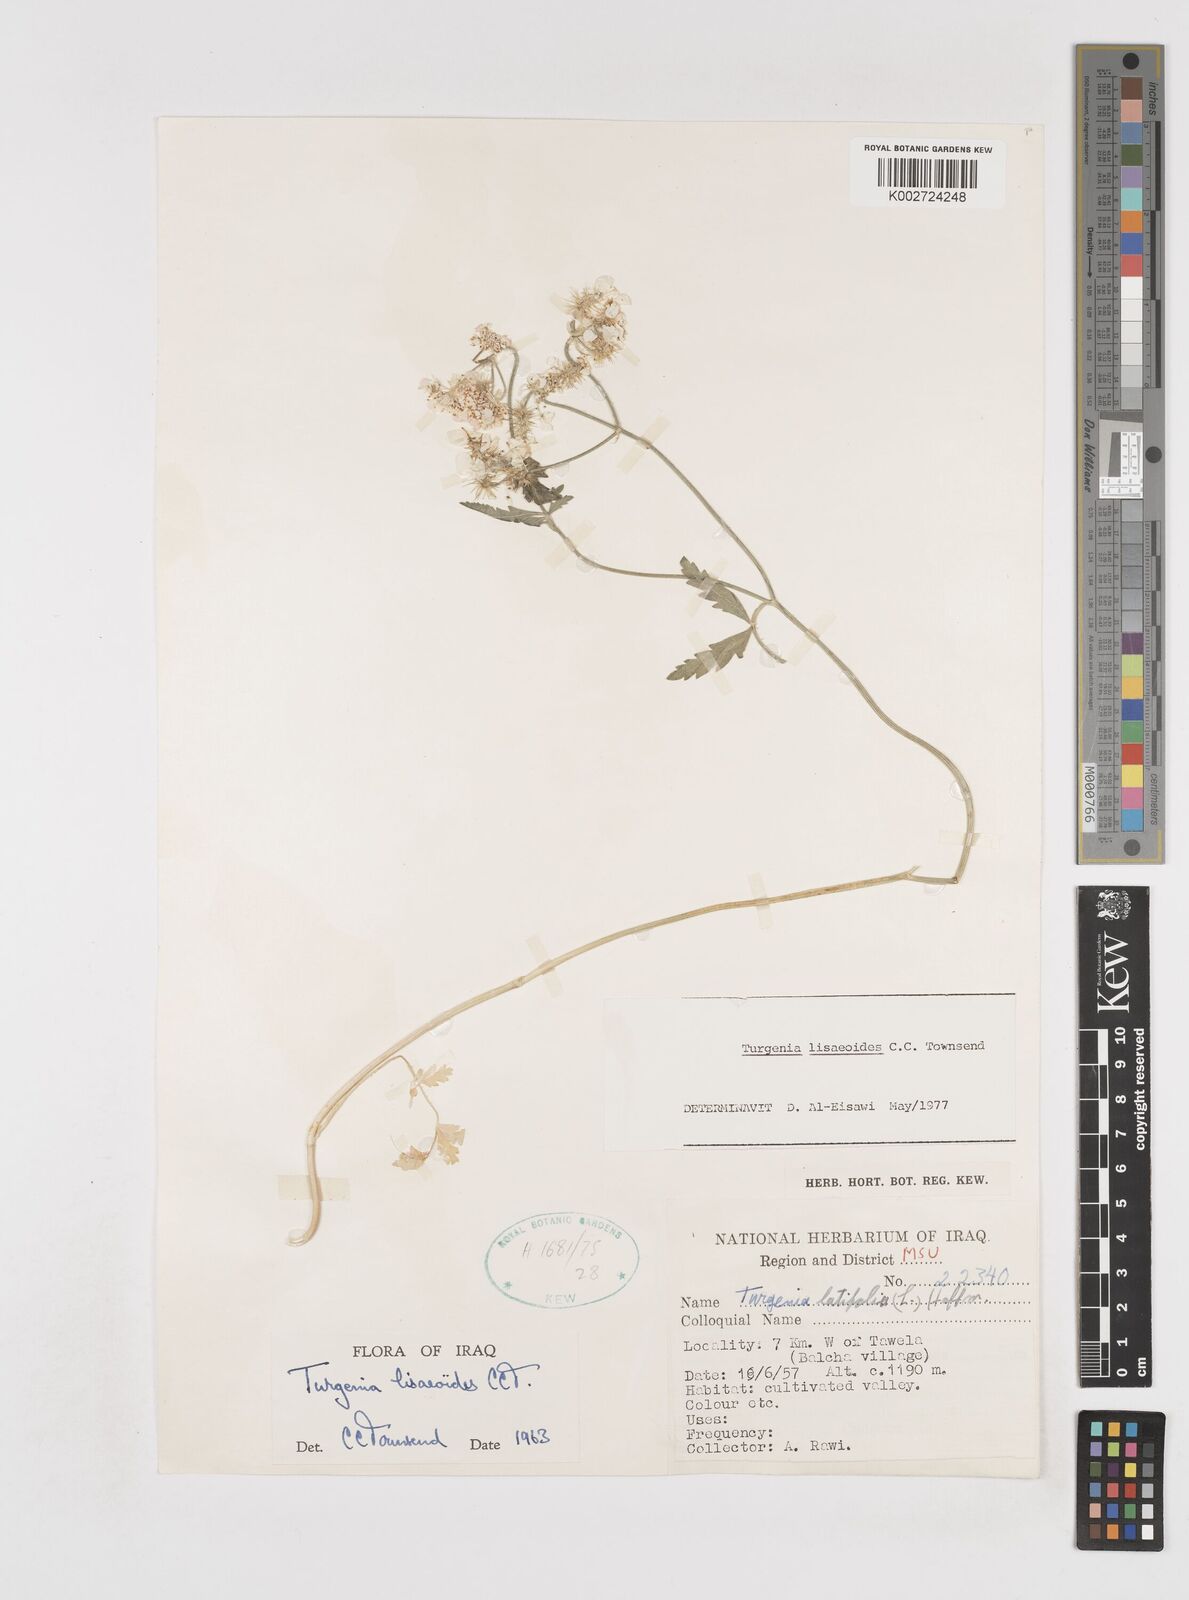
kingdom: Plantae
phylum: Tracheophyta
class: Magnoliopsida
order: Apiales
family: Apiaceae
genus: Turgenia
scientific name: Turgenia lisaeoides
